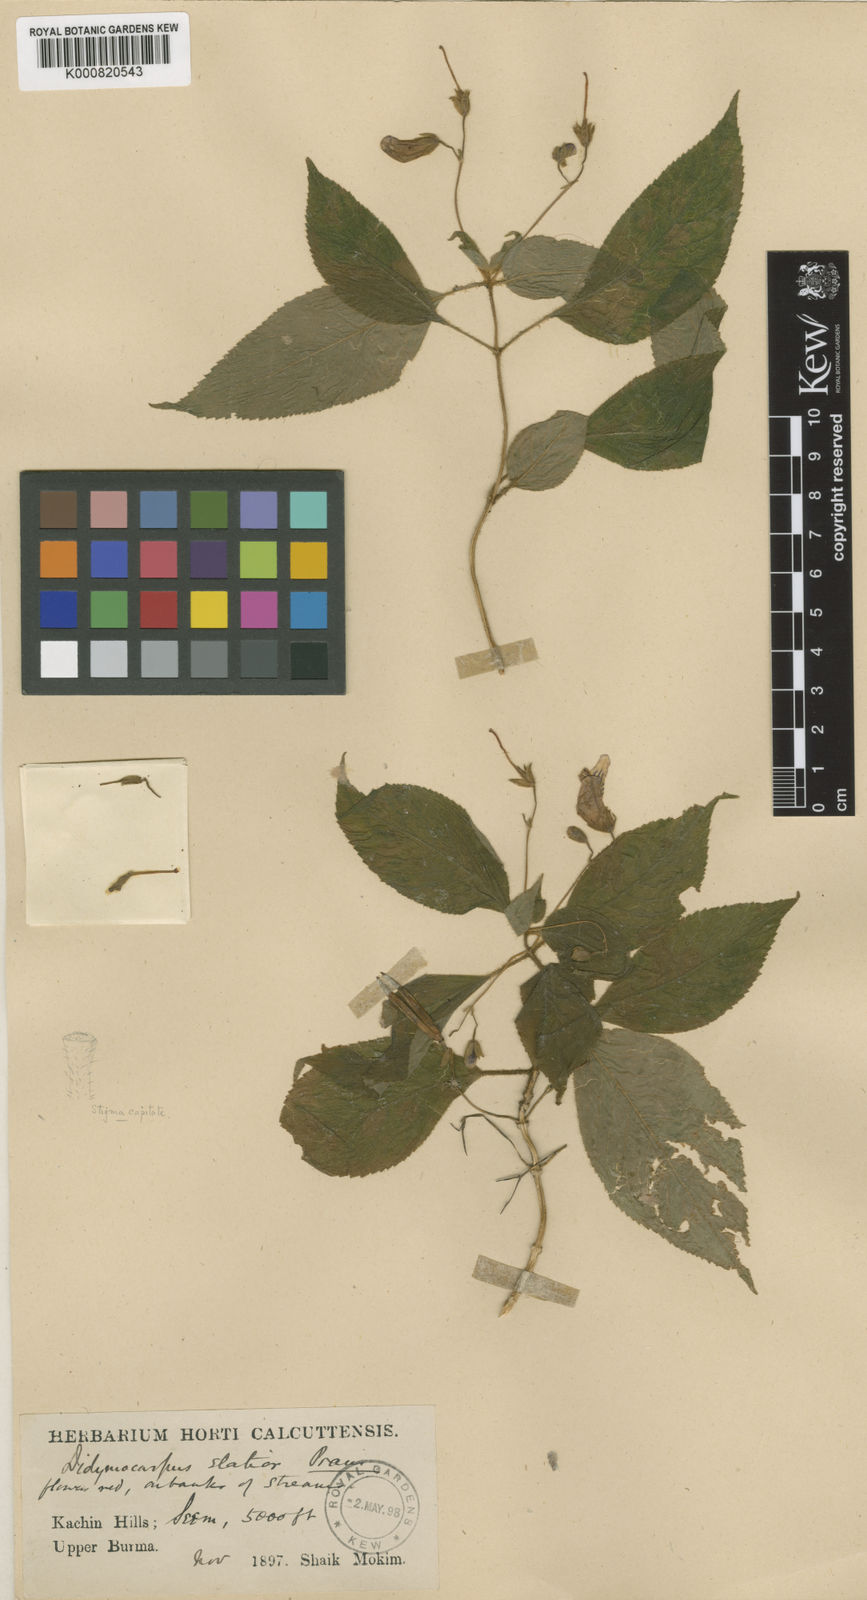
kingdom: Plantae
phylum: Tracheophyta
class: Magnoliopsida
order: Lamiales
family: Gesneriaceae
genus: Didymocarpus
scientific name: Didymocarpus elatior
